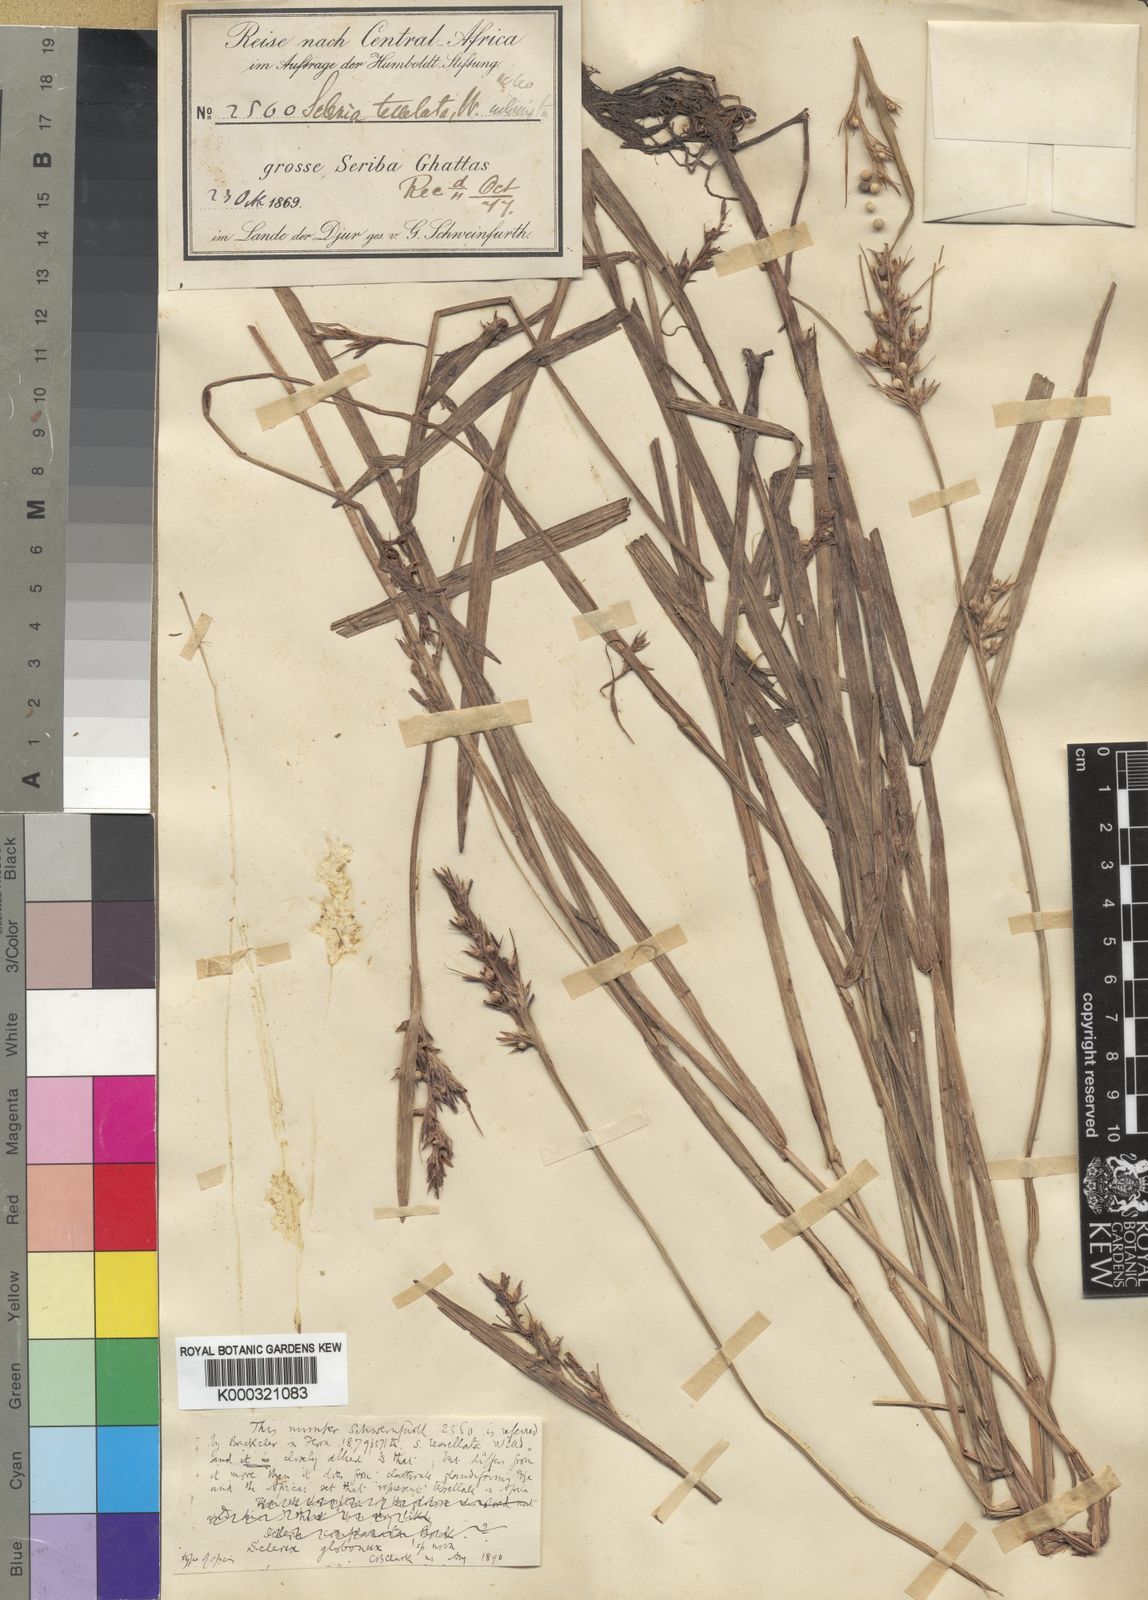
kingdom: Plantae
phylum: Tracheophyta
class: Liliopsida
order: Poales
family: Cyperaceae
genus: Scleria
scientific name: Scleria globonux
